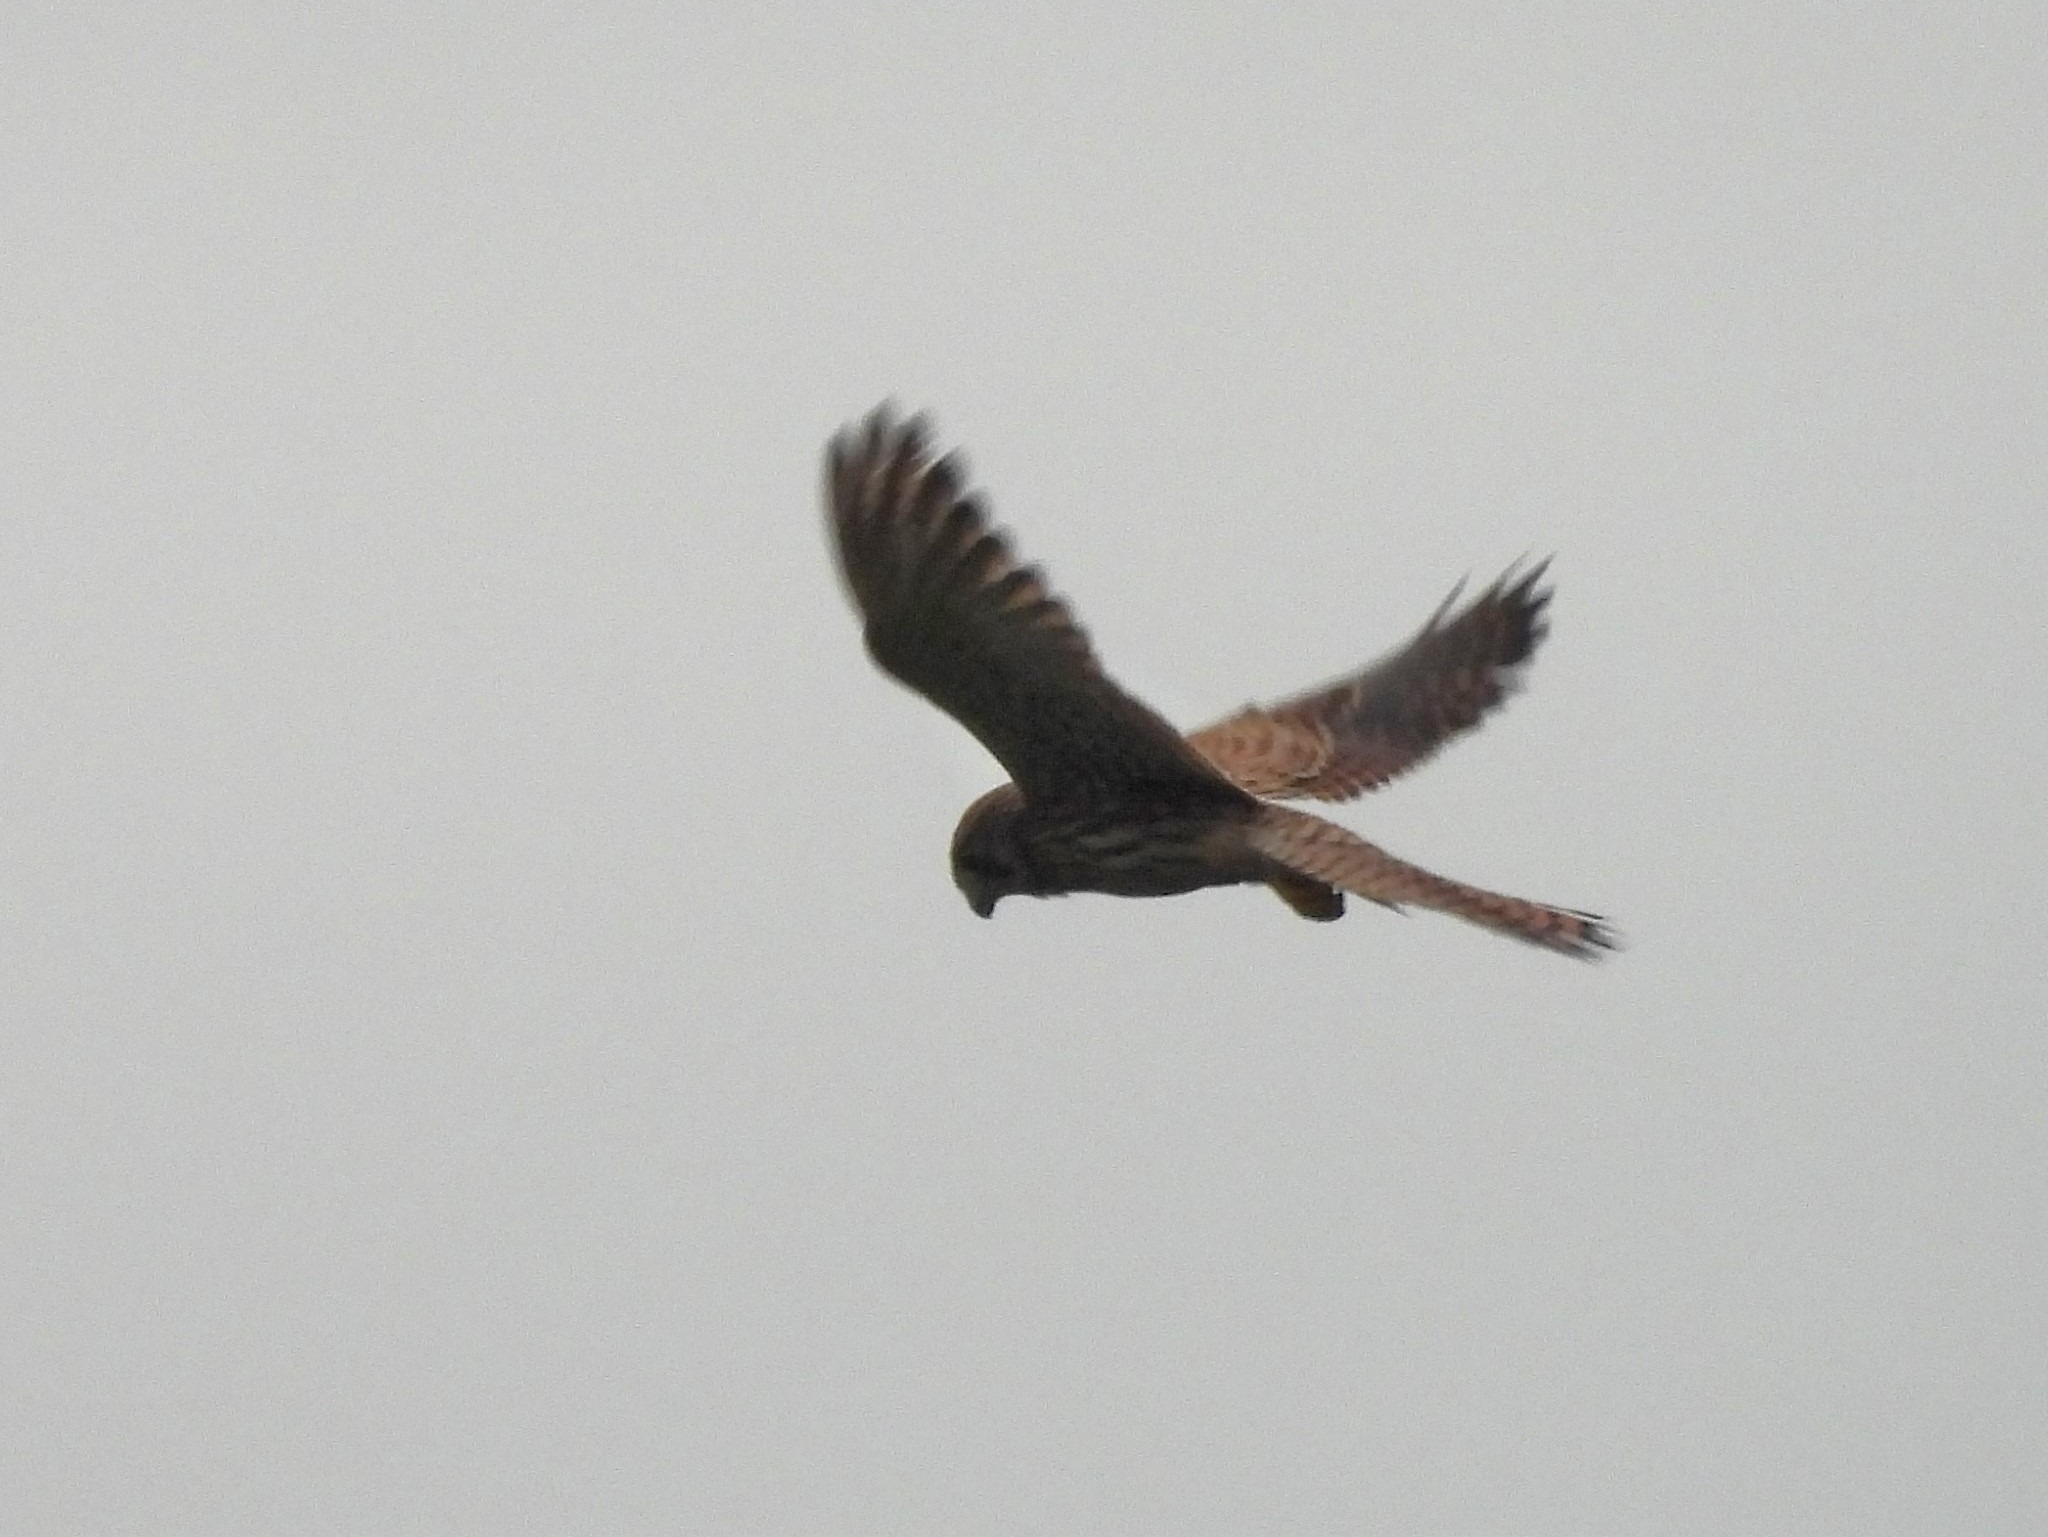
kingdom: Animalia
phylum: Chordata
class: Aves
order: Falconiformes
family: Falconidae
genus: Falco
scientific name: Falco tinnunculus
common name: Tårnfalk
